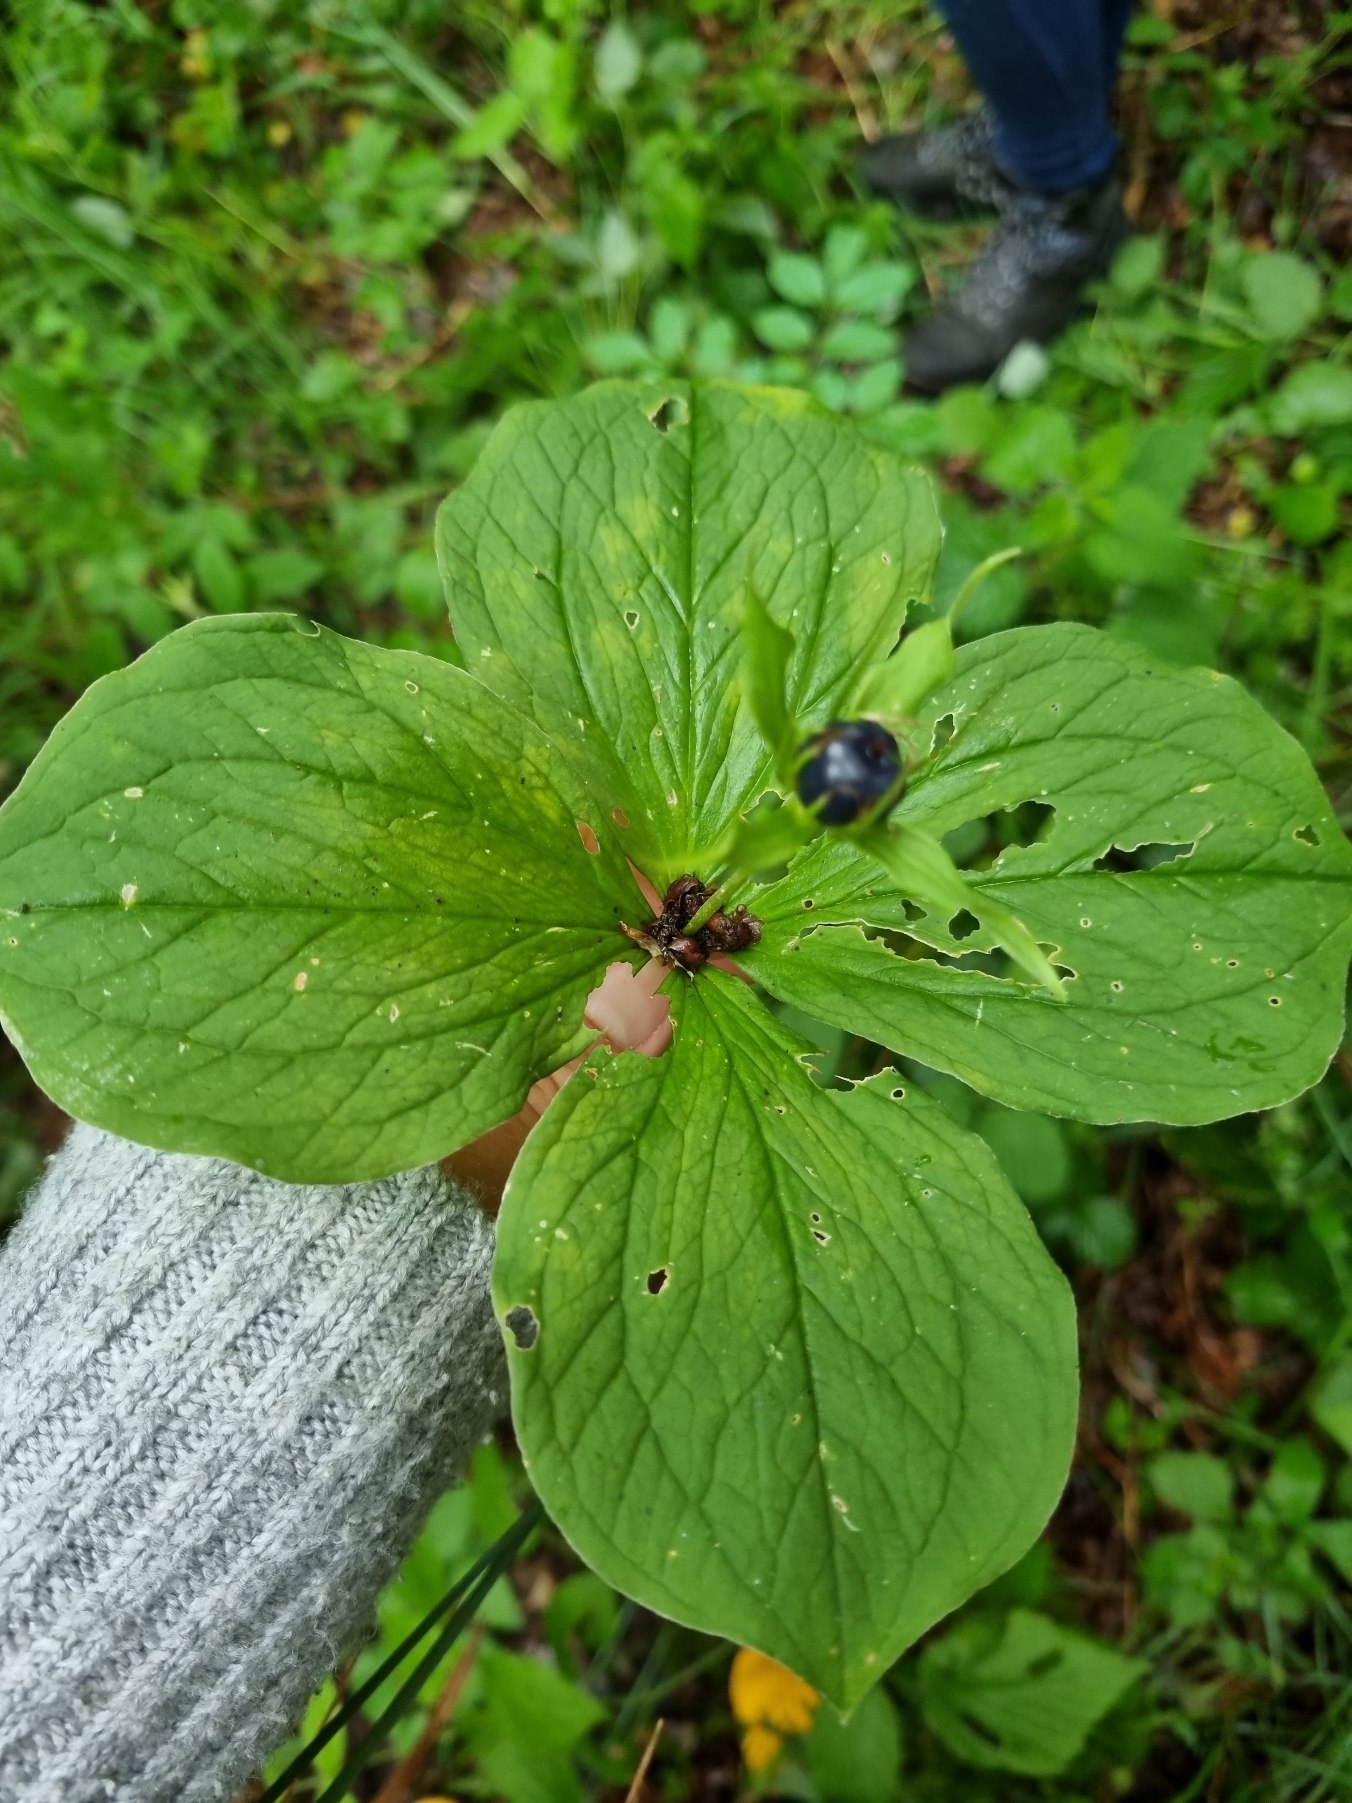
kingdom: Plantae
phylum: Tracheophyta
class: Liliopsida
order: Liliales
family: Melanthiaceae
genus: Paris
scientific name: Paris quadrifolia
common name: Firblad
